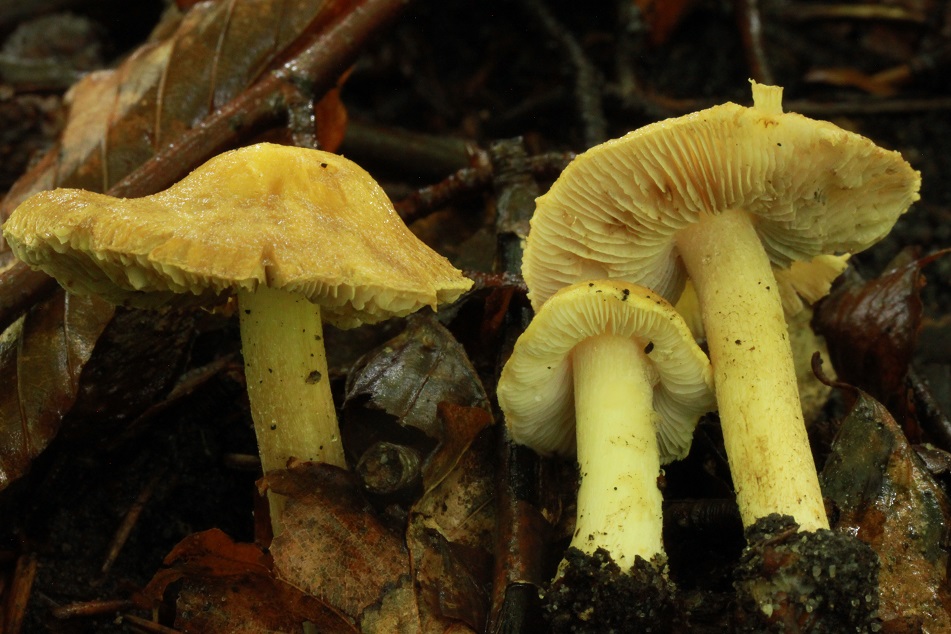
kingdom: Fungi
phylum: Basidiomycota
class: Agaricomycetes
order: Agaricales
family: Inocybaceae
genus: Inosperma
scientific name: Inosperma
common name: strågul trævlhat
